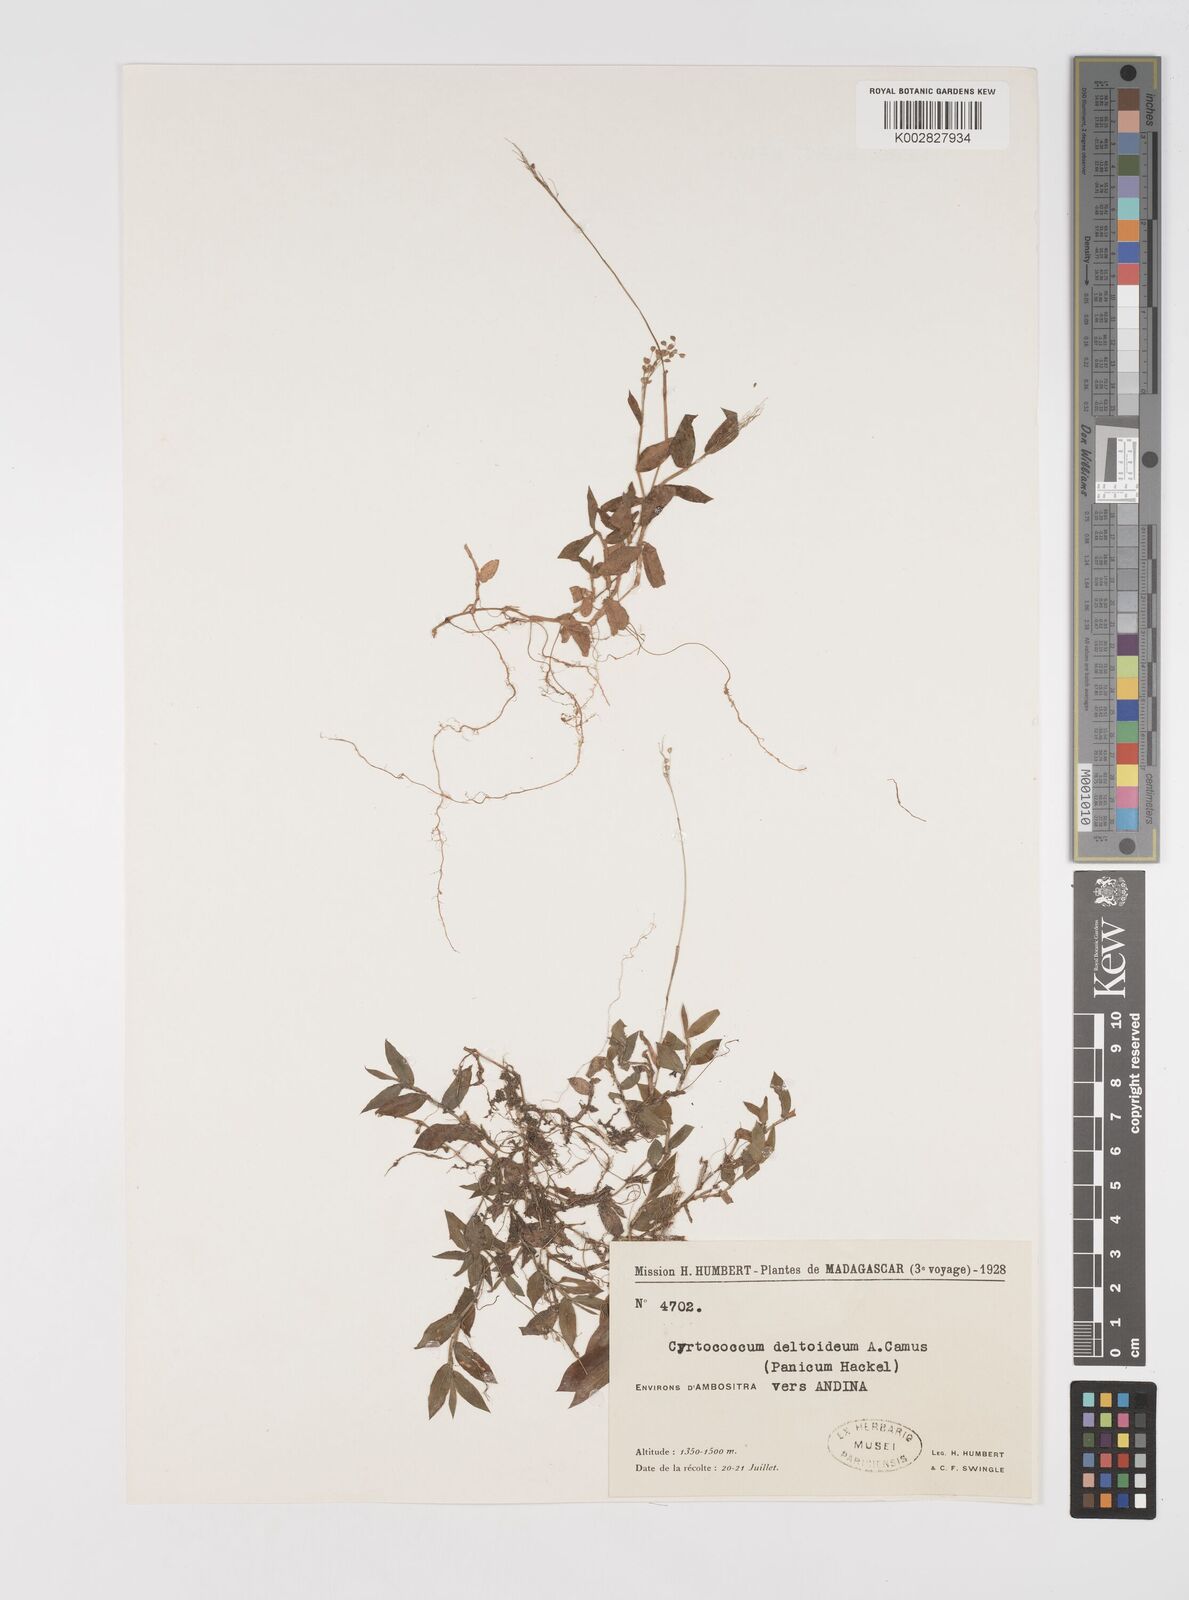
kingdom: Plantae
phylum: Tracheophyta
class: Liliopsida
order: Poales
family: Poaceae
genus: Cyrtococcum
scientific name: Cyrtococcum deltoideum
